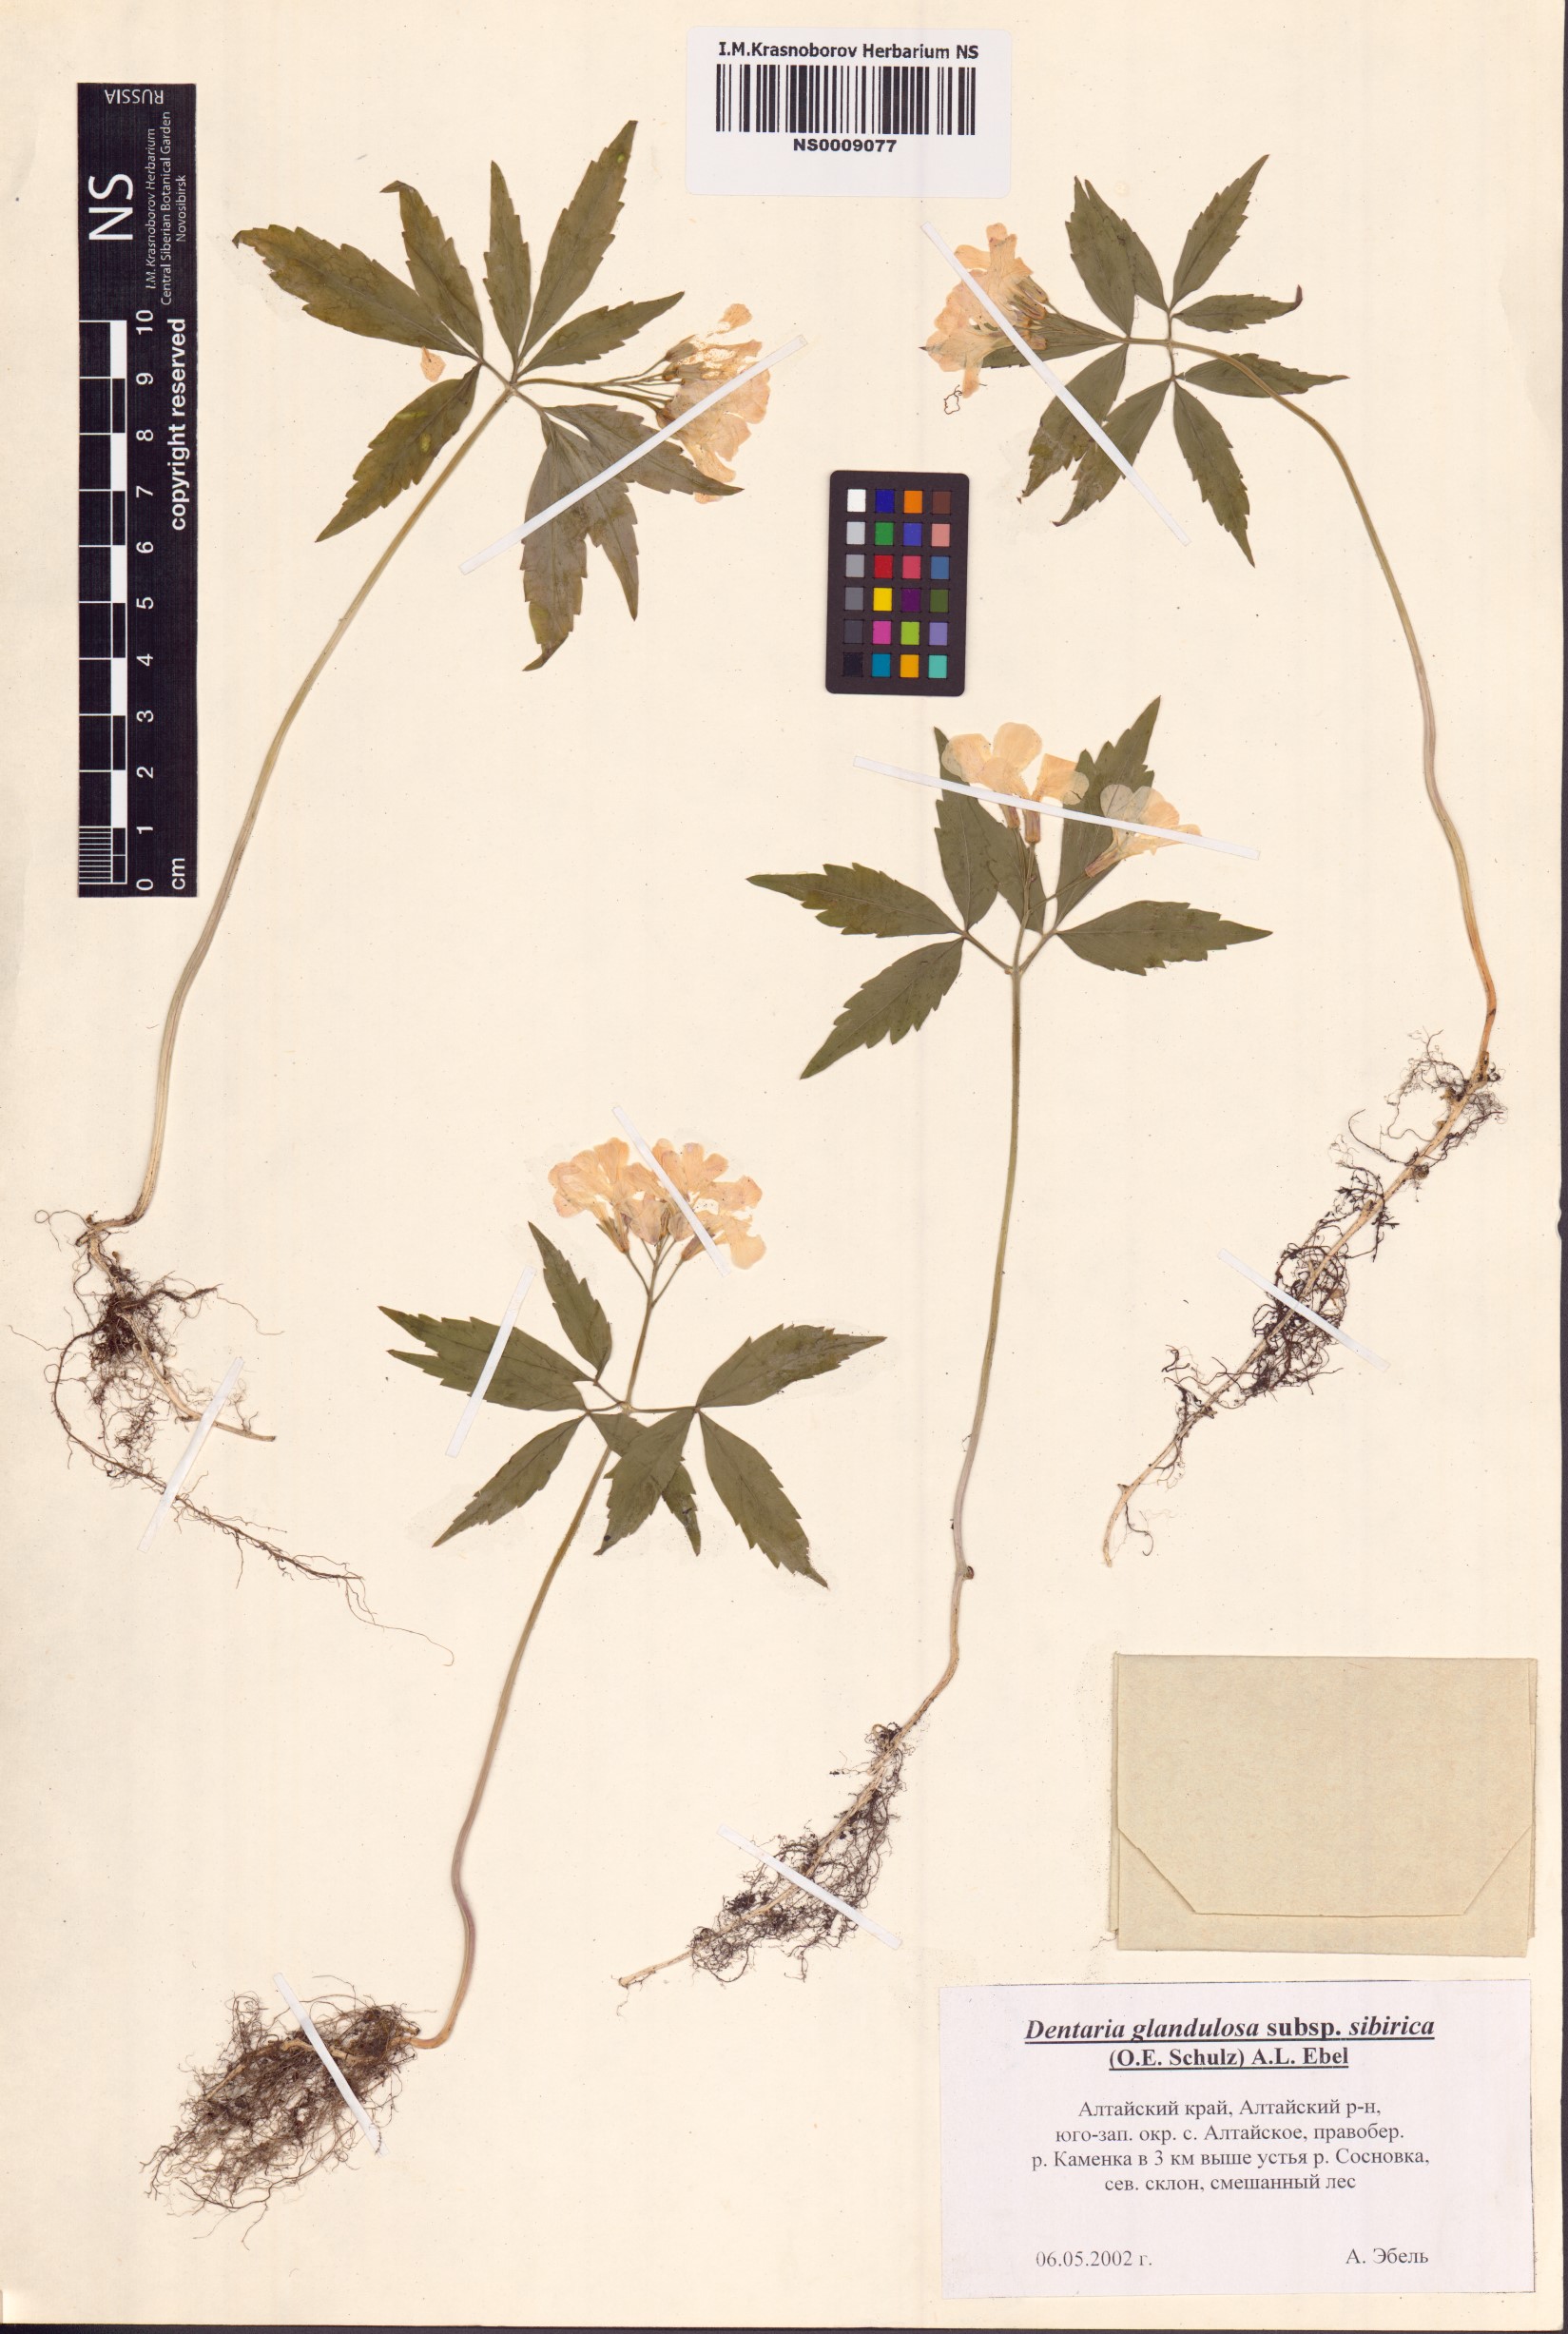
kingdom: Plantae
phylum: Tracheophyta
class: Magnoliopsida
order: Brassicales
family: Brassicaceae
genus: Cardamine
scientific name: Cardamine glanduligera
